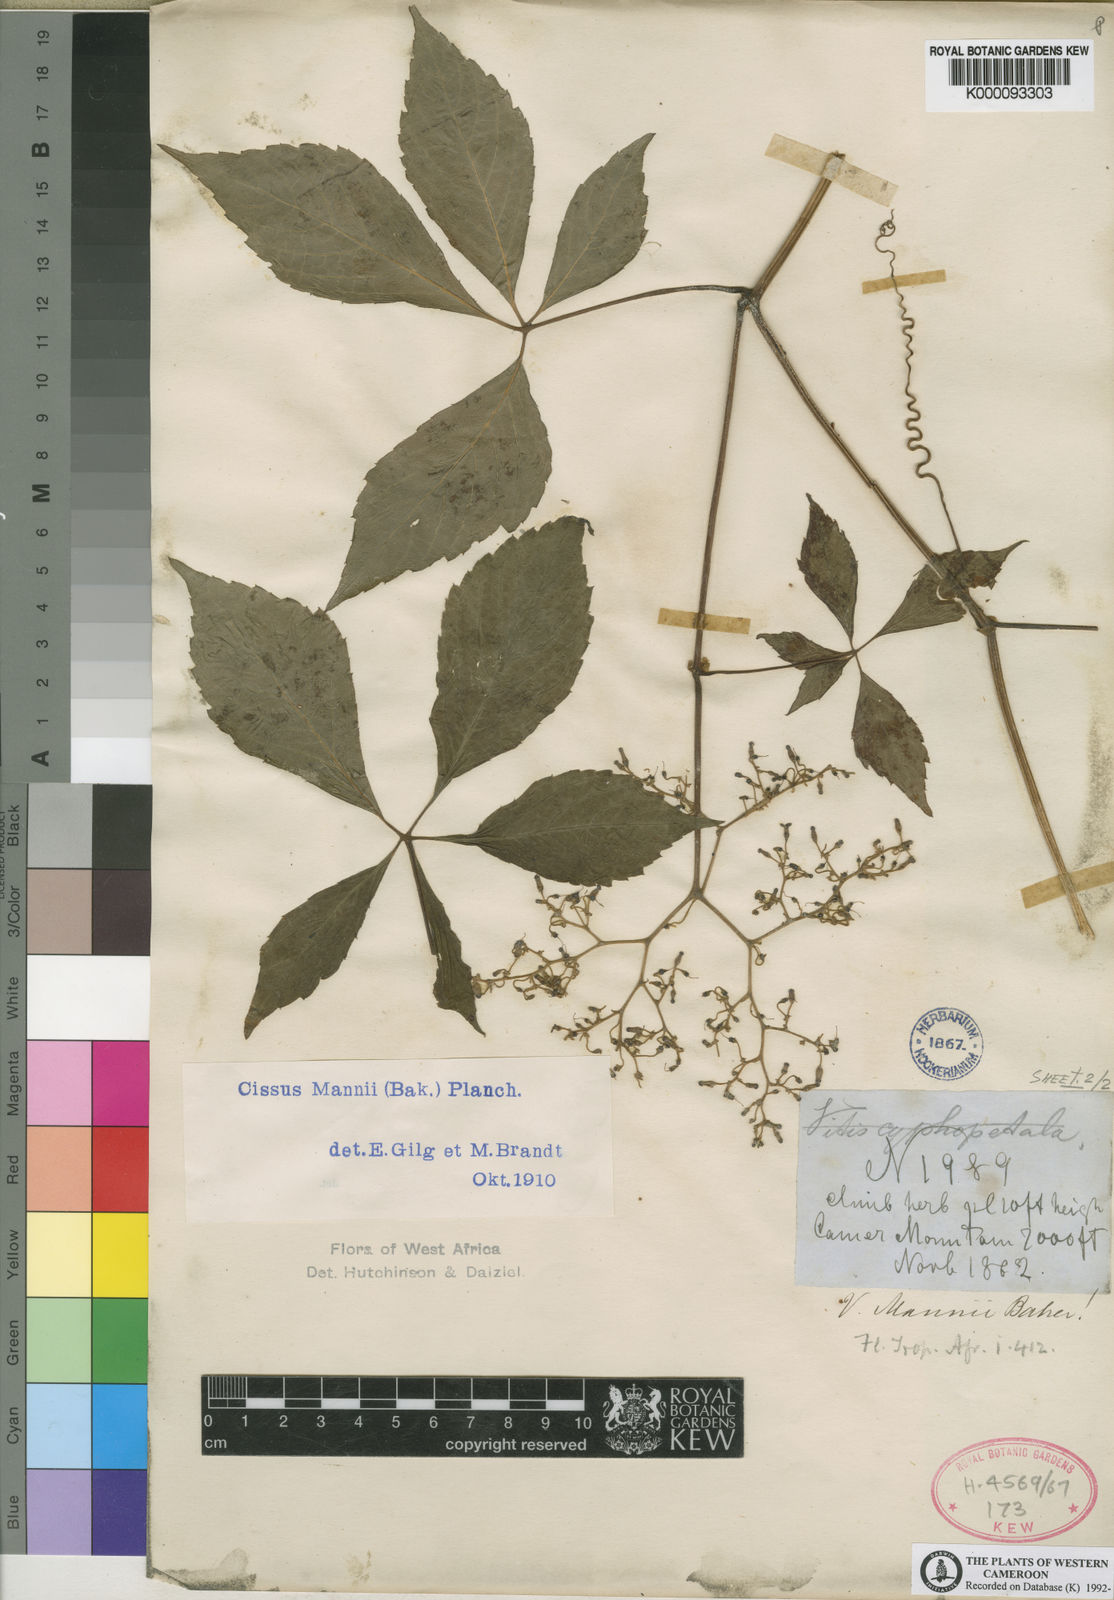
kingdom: Plantae
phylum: Tracheophyta
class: Magnoliopsida
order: Vitales
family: Vitaceae
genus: Cyphostemma
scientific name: Cyphostemma mannii
